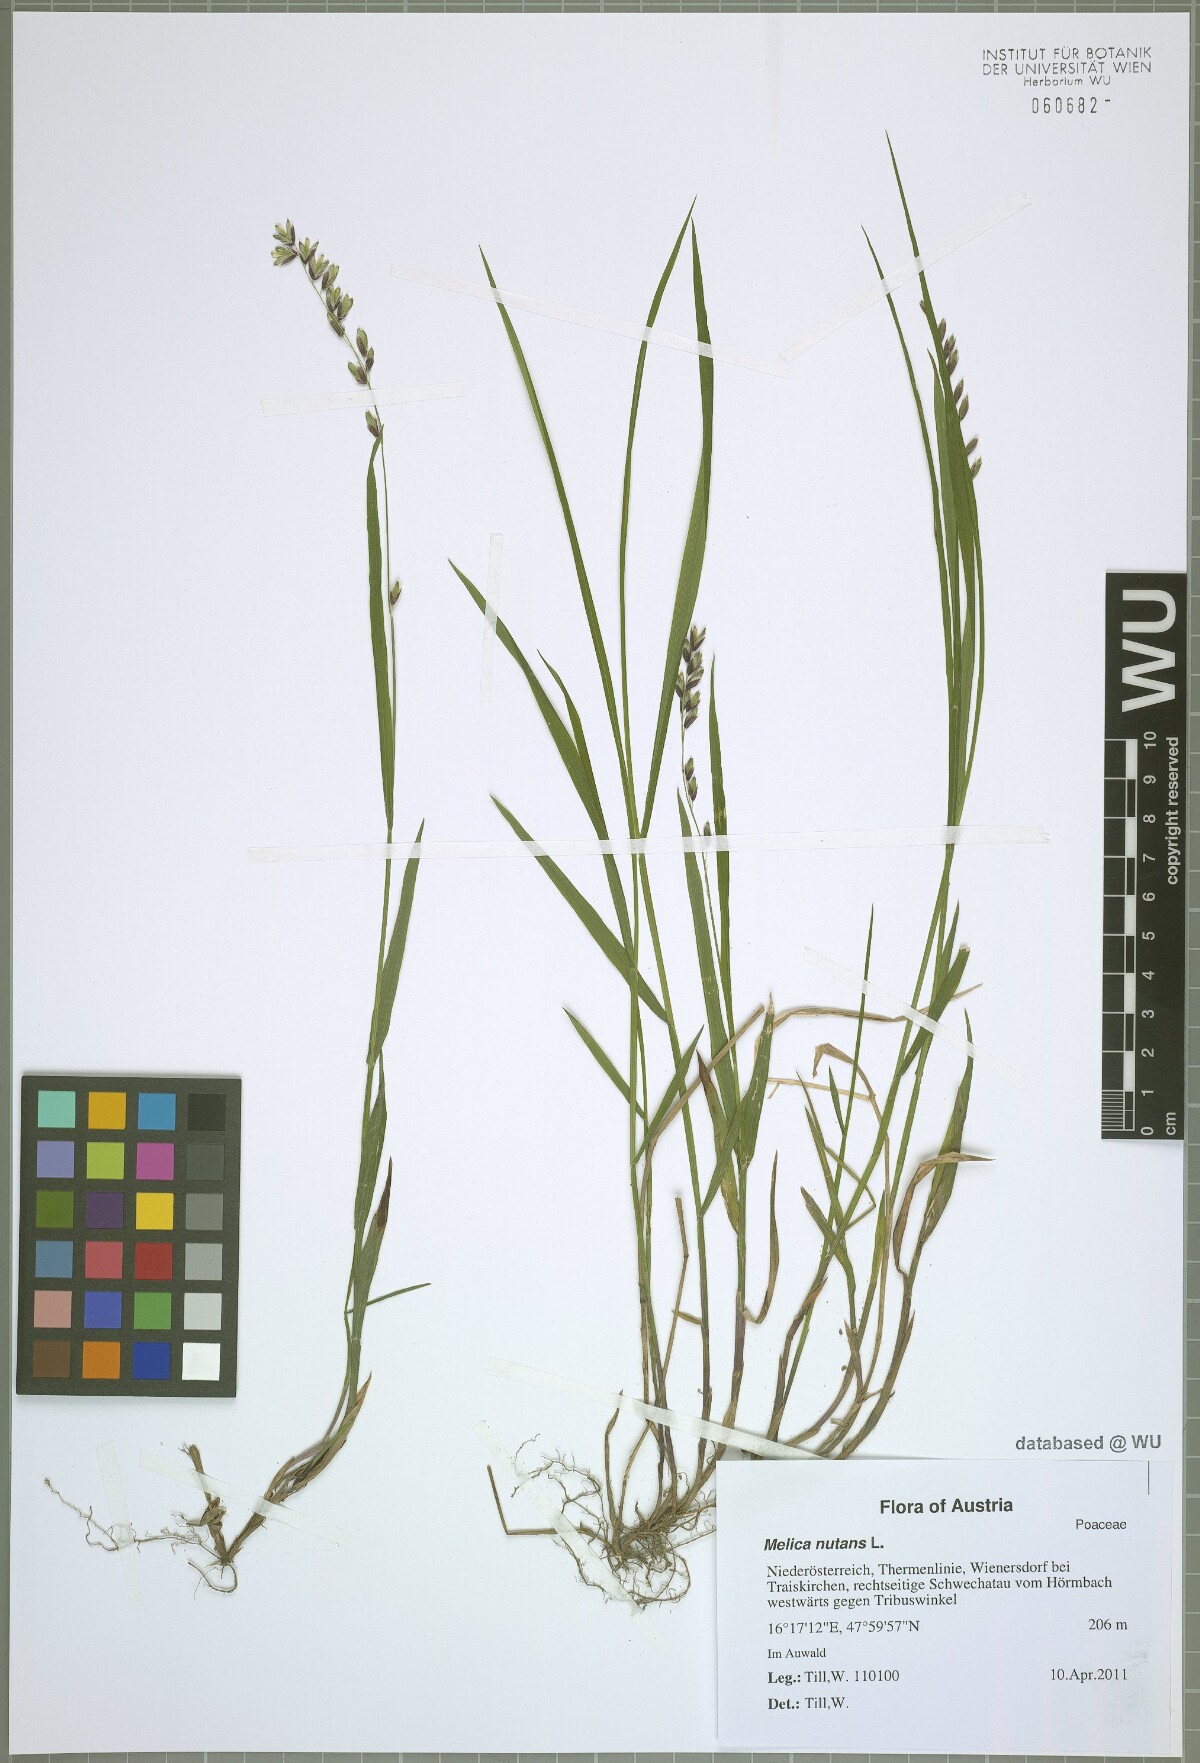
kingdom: Plantae
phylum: Tracheophyta
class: Liliopsida
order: Poales
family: Poaceae
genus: Melica
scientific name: Melica nutans
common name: Mountain melick
